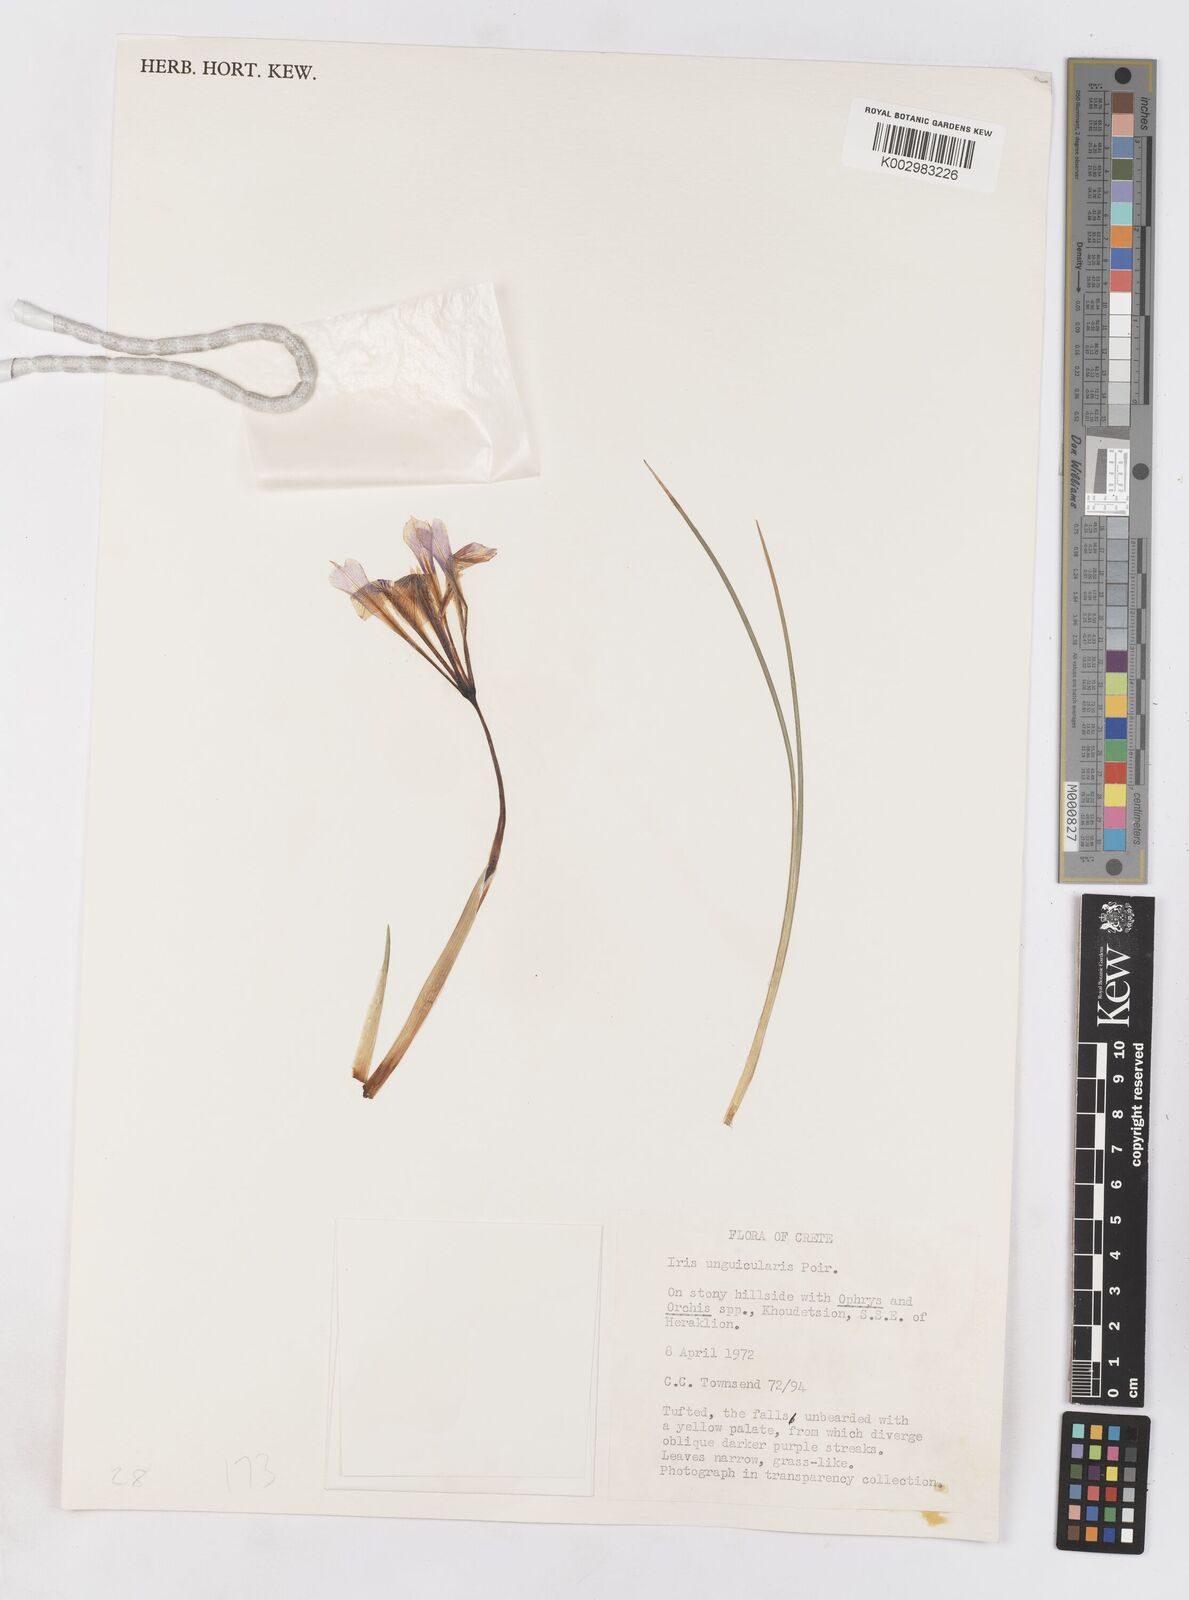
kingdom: Plantae
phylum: Tracheophyta
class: Liliopsida
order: Asparagales
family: Iridaceae
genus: Iris
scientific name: Iris unguicularis
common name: Algerian iris
